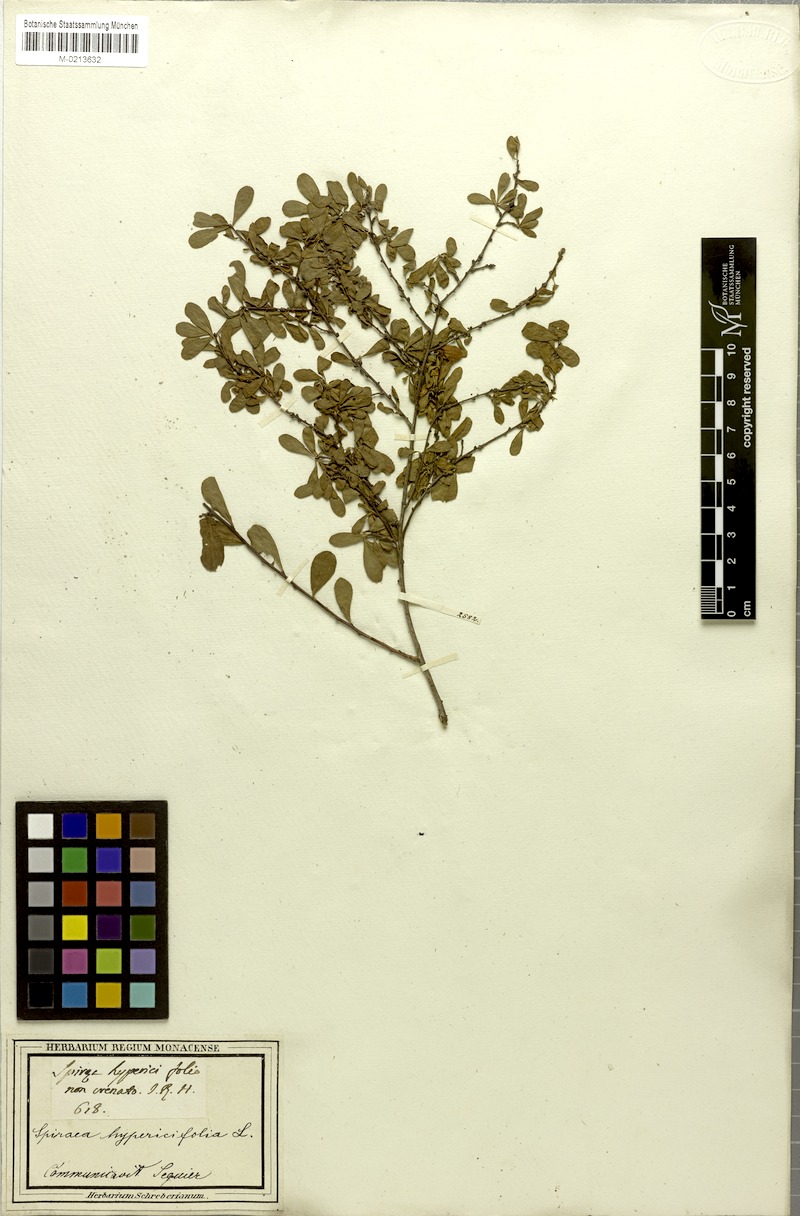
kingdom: Plantae
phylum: Tracheophyta
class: Magnoliopsida
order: Rosales
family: Rosaceae
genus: Spiraea
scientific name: Spiraea hypericifolia
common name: Iberian spirea
